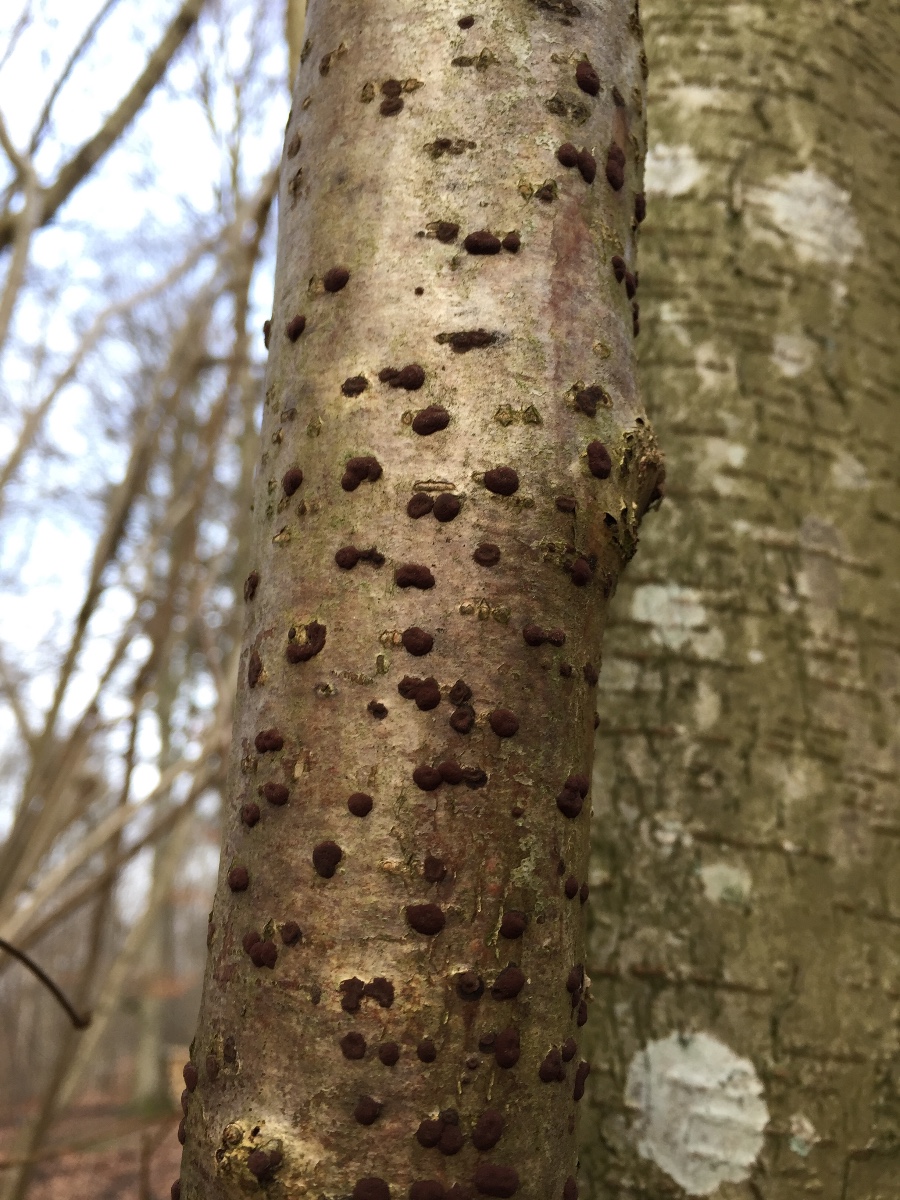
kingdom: Fungi
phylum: Ascomycota
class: Sordariomycetes
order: Xylariales
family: Hypoxylaceae
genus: Hypoxylon
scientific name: Hypoxylon fuscum
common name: kegleformet kulbær
